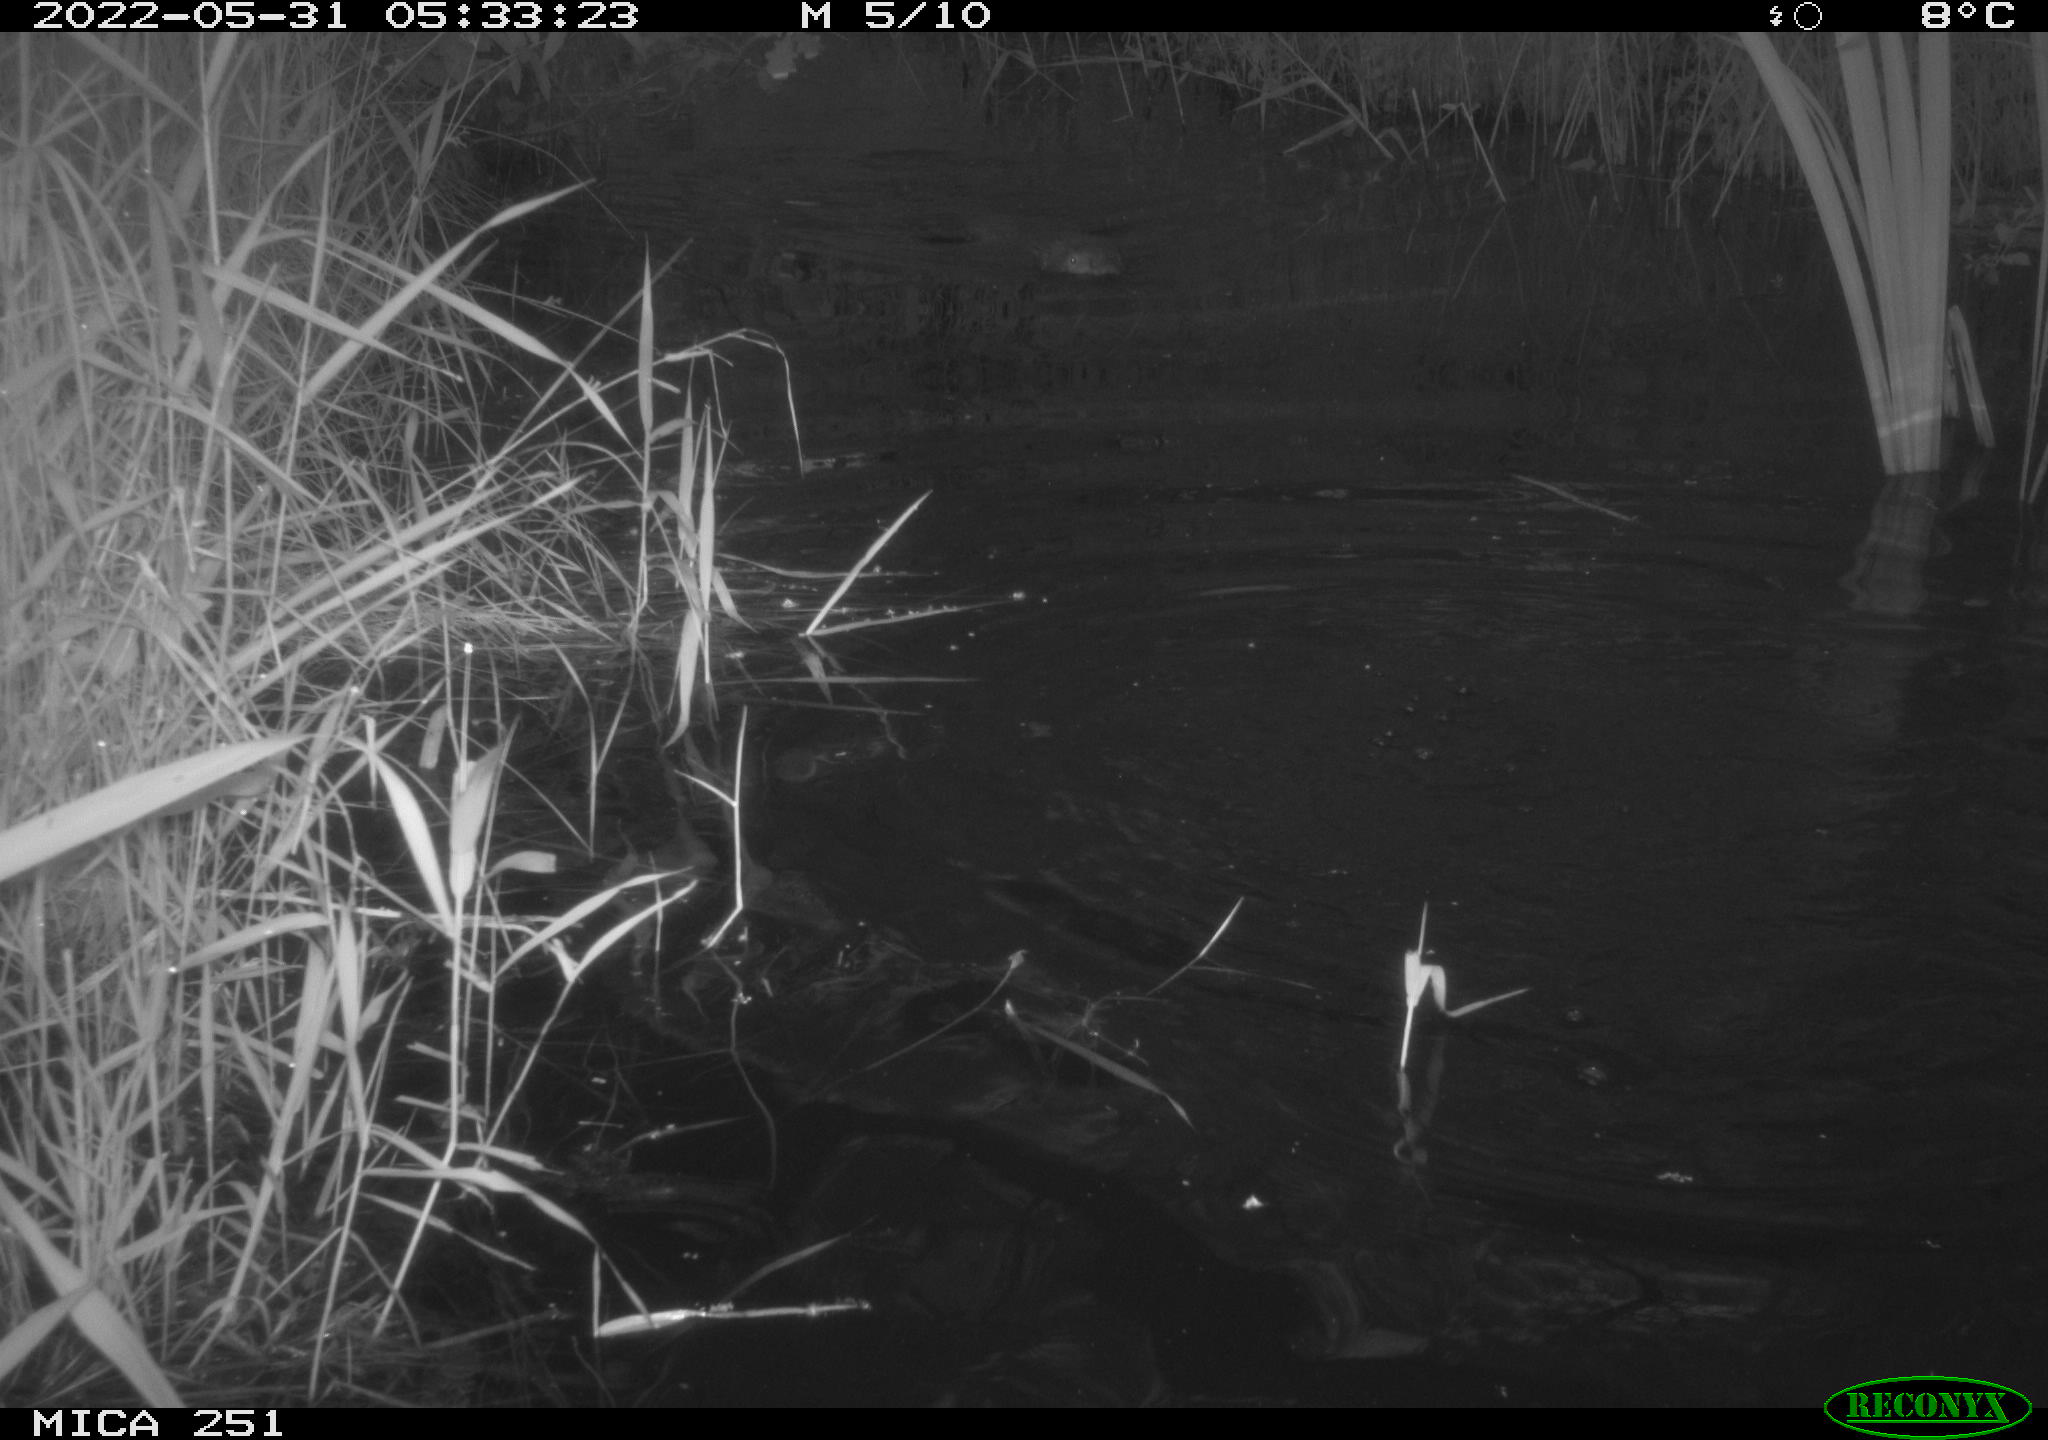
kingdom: Animalia
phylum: Chordata
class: Mammalia
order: Rodentia
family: Castoridae
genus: Castor
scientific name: Castor fiber
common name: Eurasian beaver
